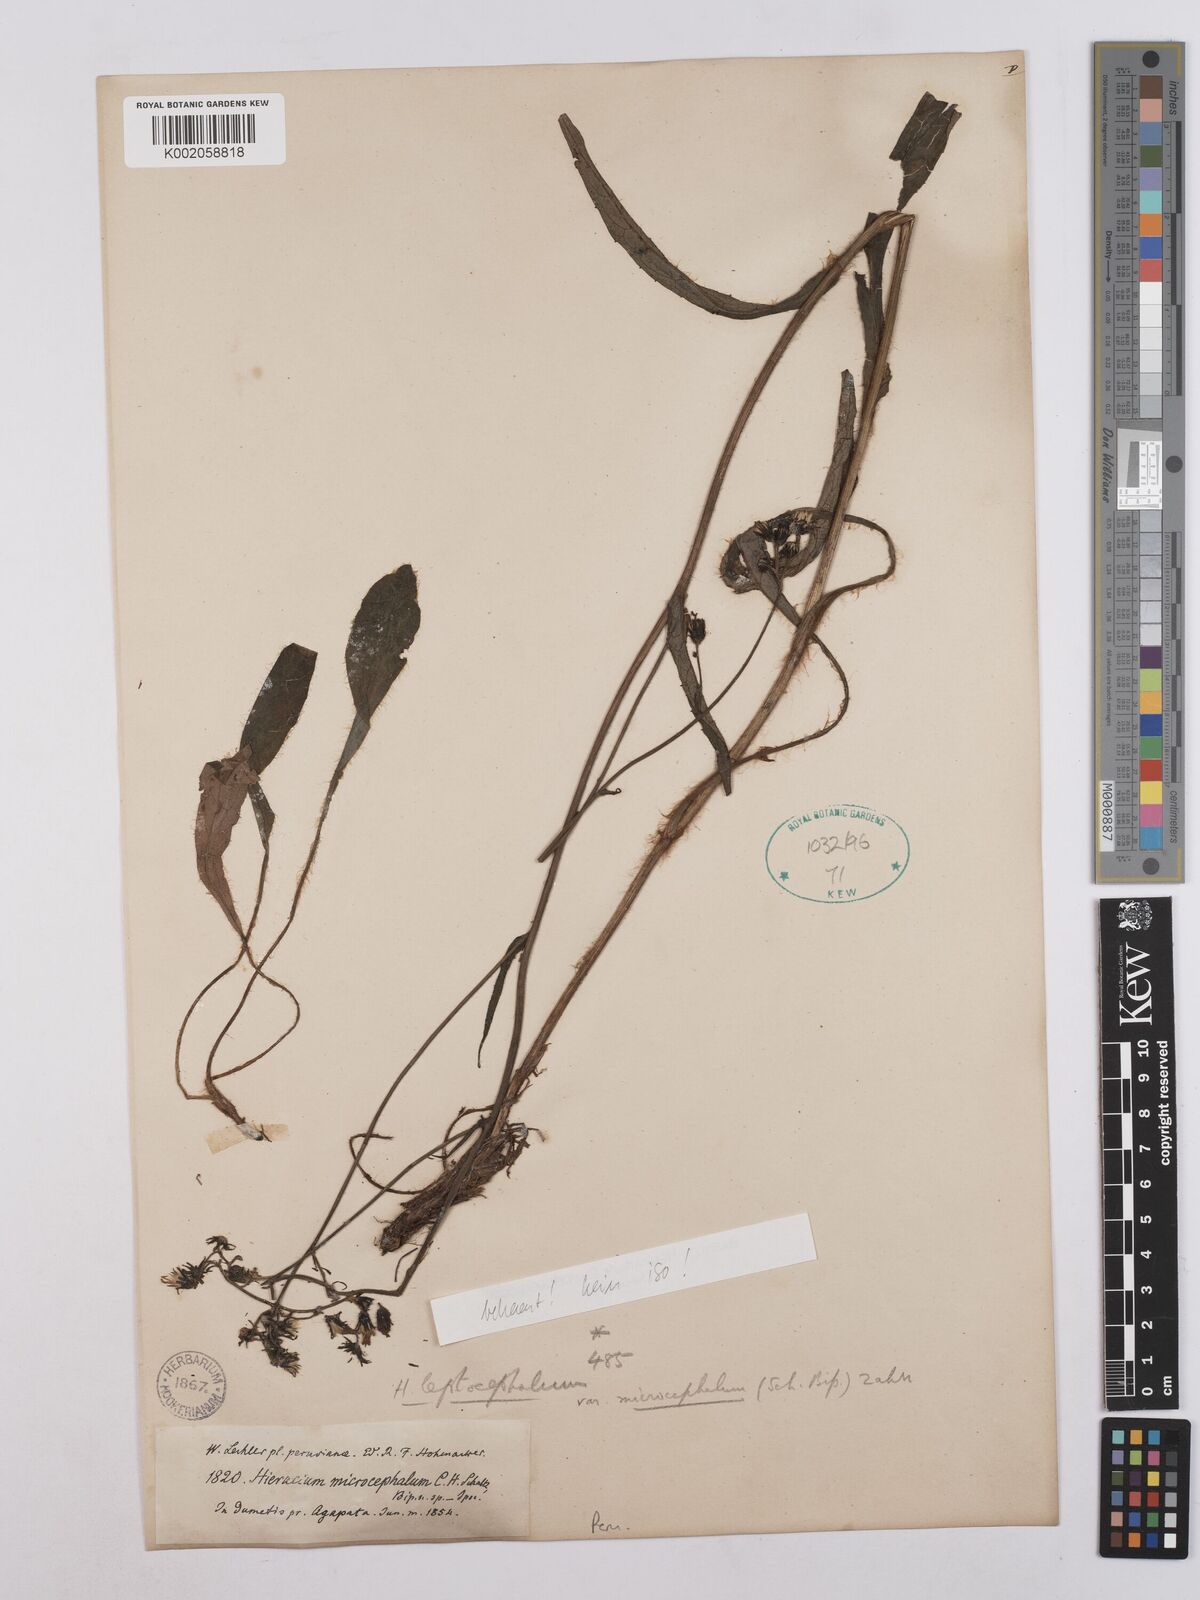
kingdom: Plantae
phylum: Tracheophyta
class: Magnoliopsida
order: Asterales
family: Asteraceae
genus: Hieracium
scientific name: Hieracium microcephalum
